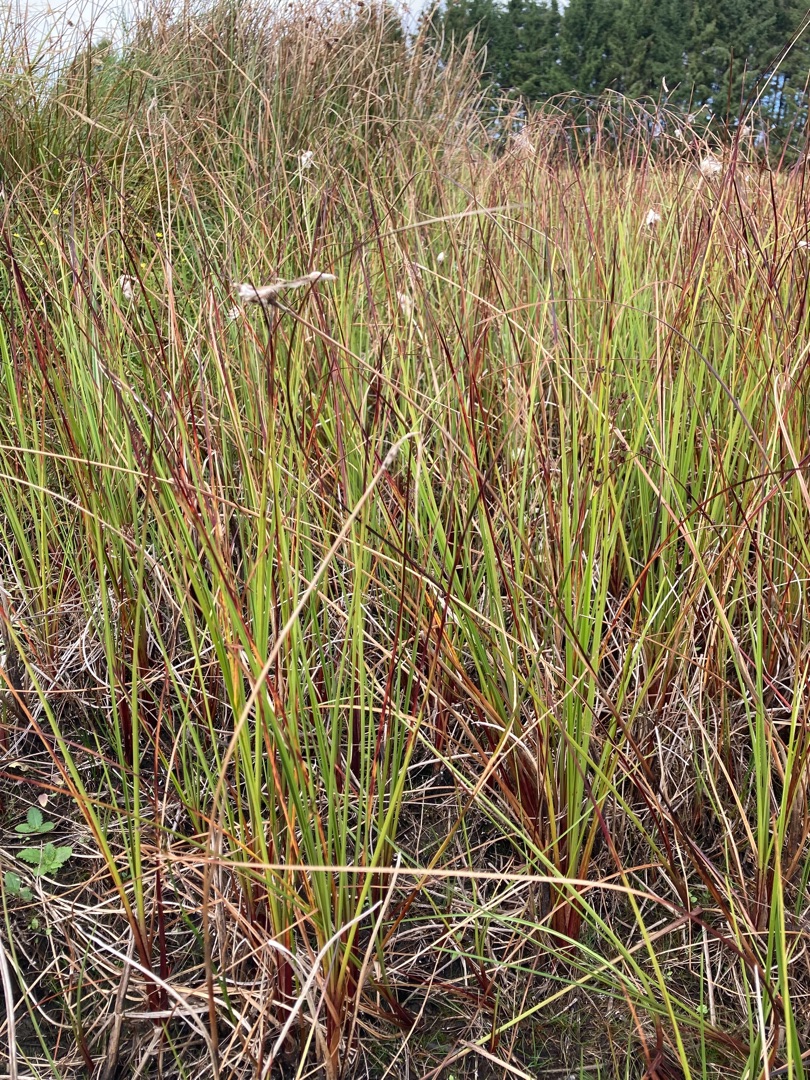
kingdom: Plantae
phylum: Tracheophyta
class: Liliopsida
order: Poales
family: Cyperaceae
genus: Eriophorum
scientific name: Eriophorum angustifolium
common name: Smalbladet kæruld
